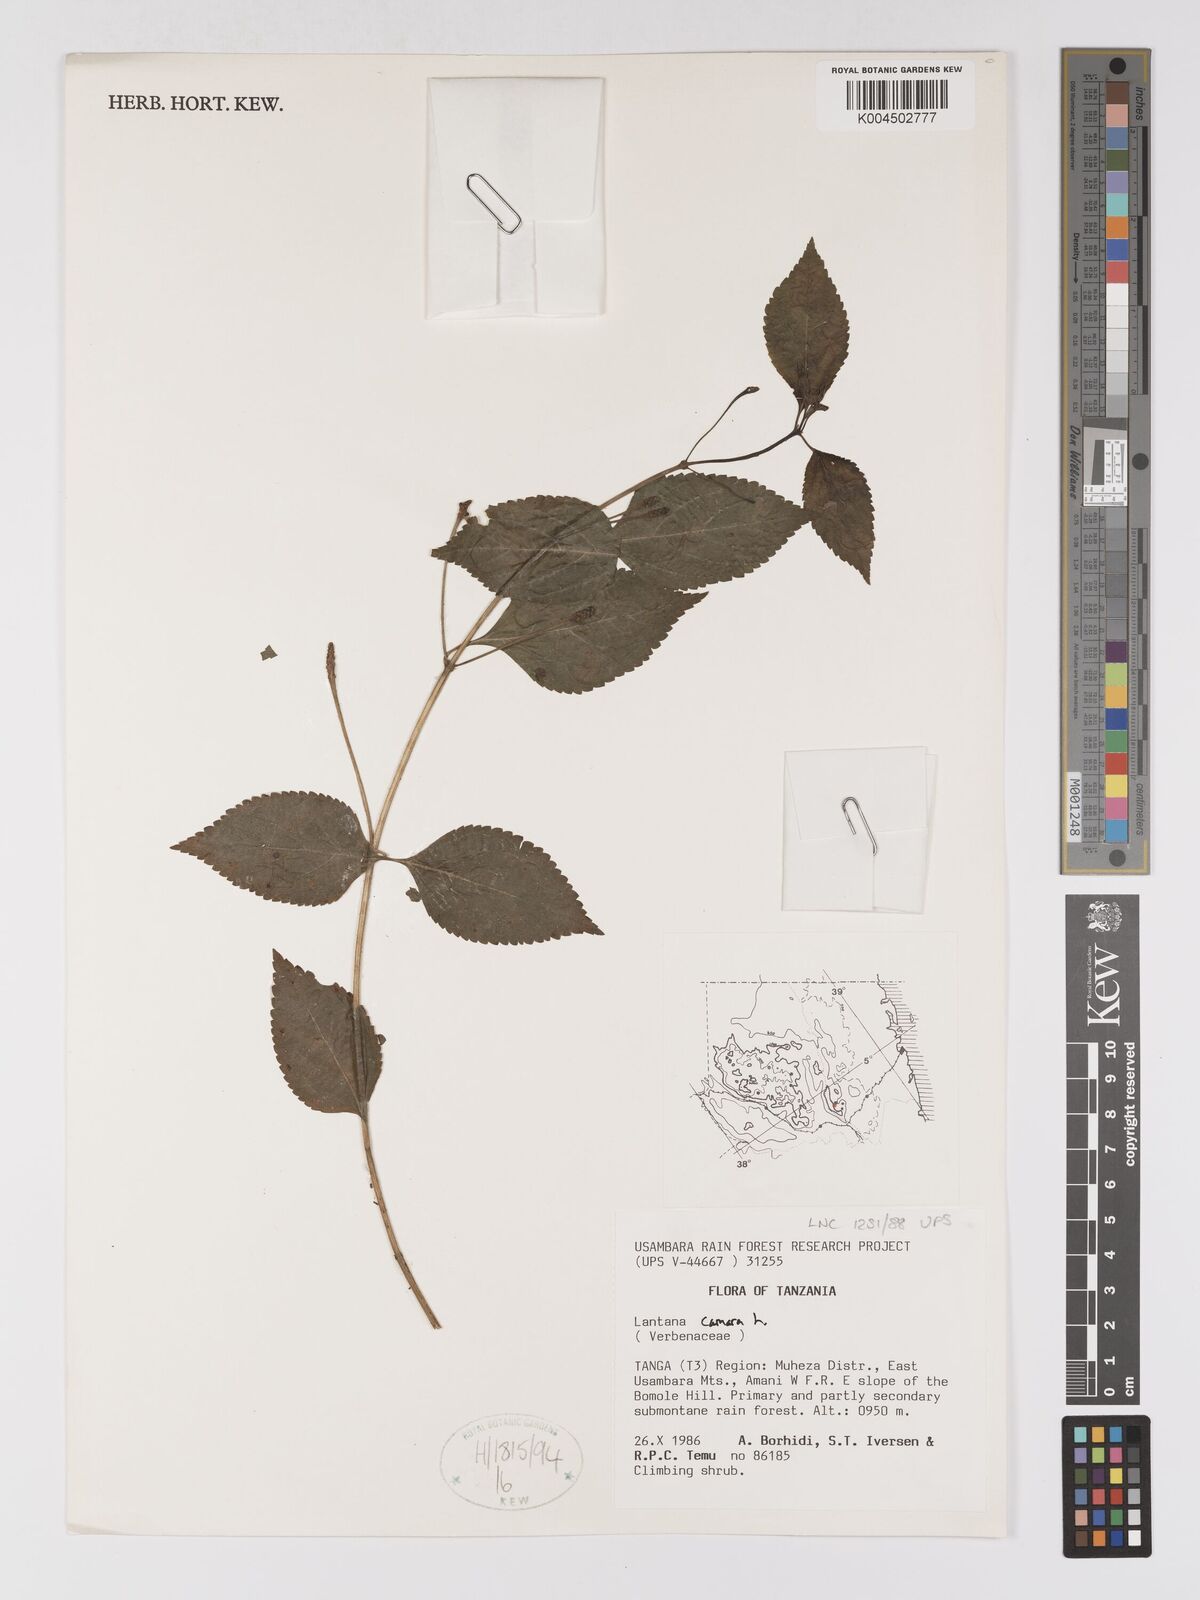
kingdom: Plantae
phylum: Tracheophyta
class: Magnoliopsida
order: Lamiales
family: Verbenaceae
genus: Lantana
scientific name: Lantana camara
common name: Lantana
